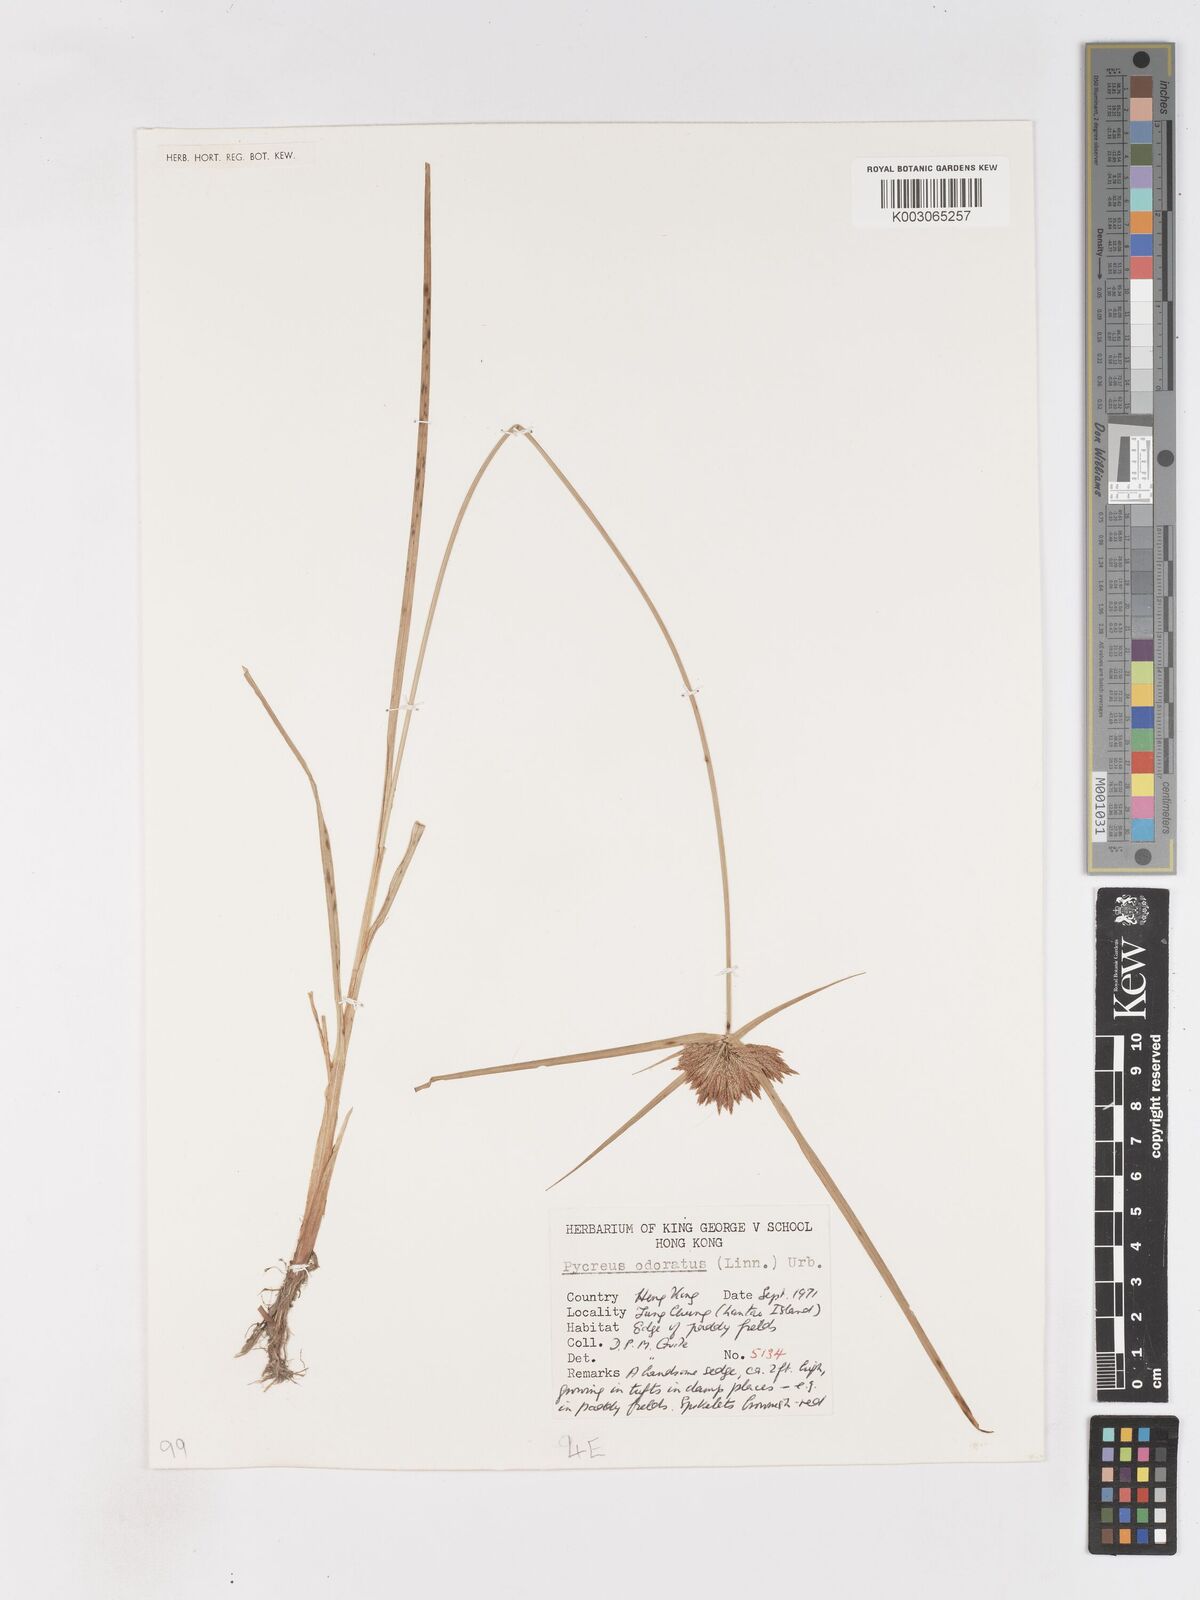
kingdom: Plantae
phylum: Tracheophyta
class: Liliopsida
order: Poales
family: Cyperaceae
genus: Cyperus
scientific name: Cyperus polystachyos
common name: Bunchy flat sedge
